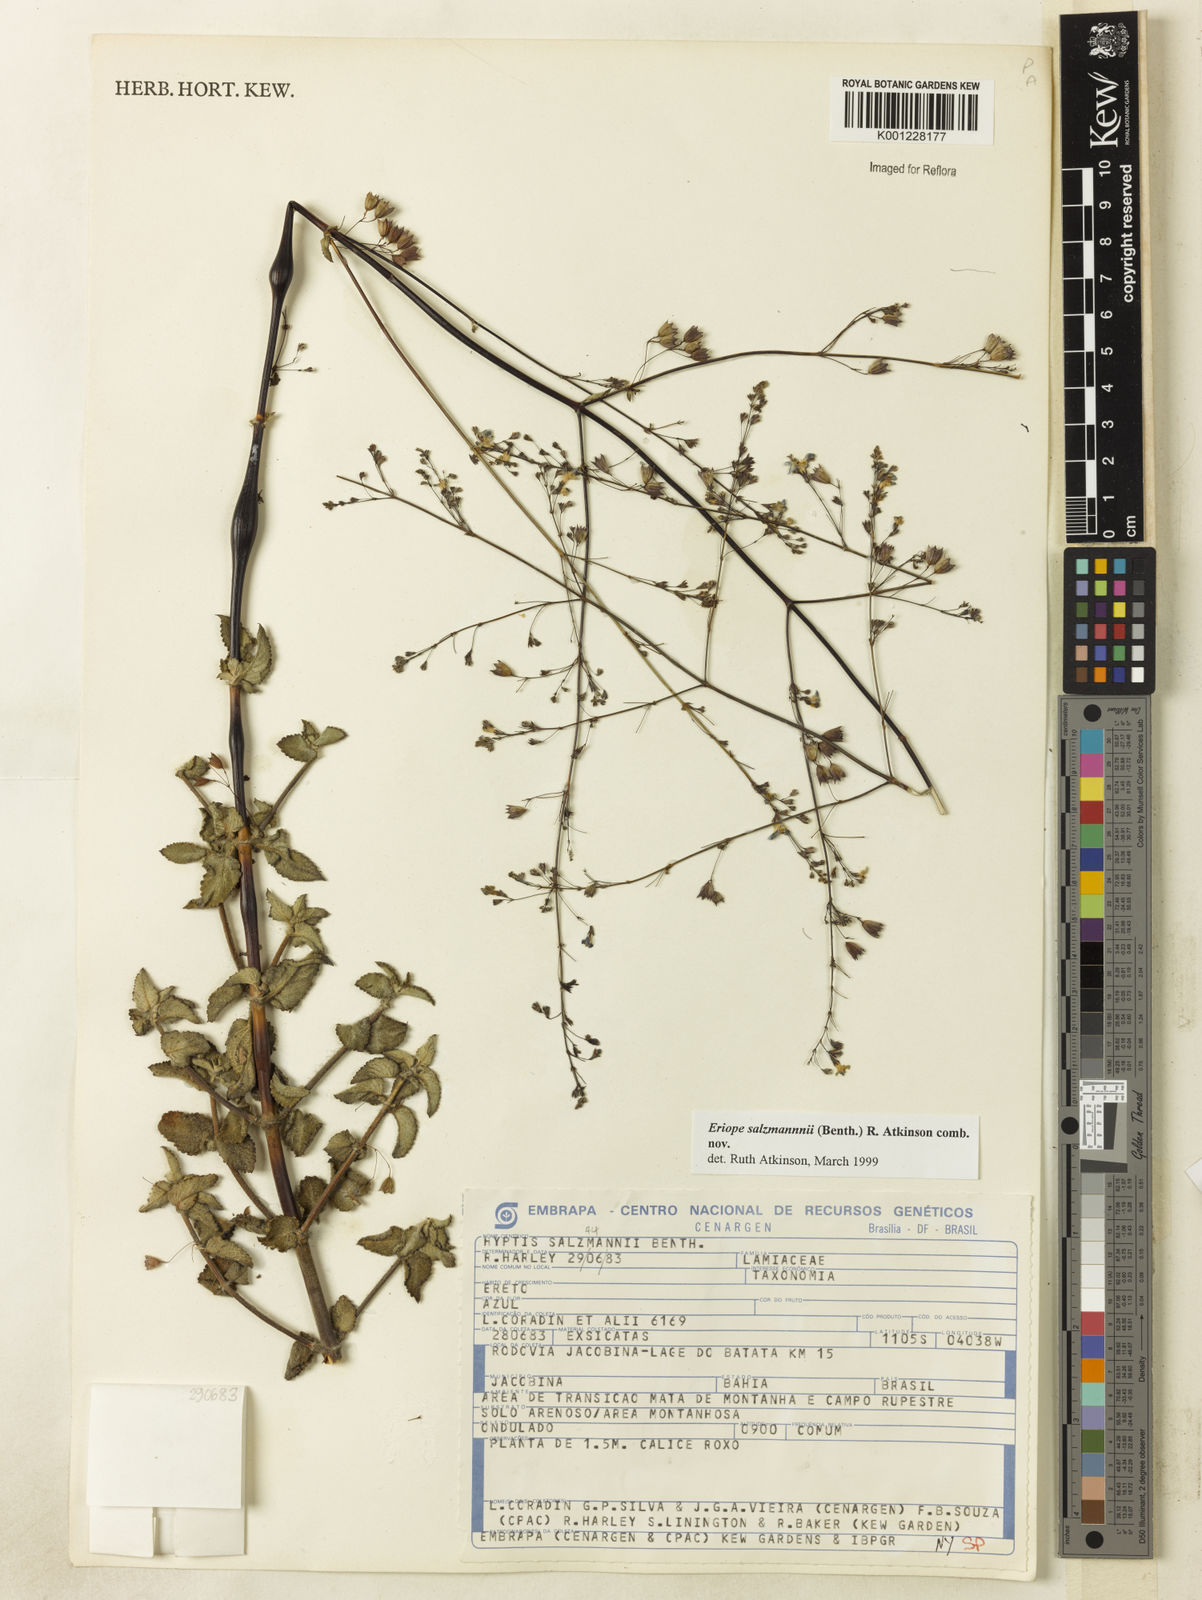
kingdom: Plantae
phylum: Tracheophyta
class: Magnoliopsida
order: Lamiales
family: Lamiaceae
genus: Hypenia
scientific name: Hypenia salzmannii
